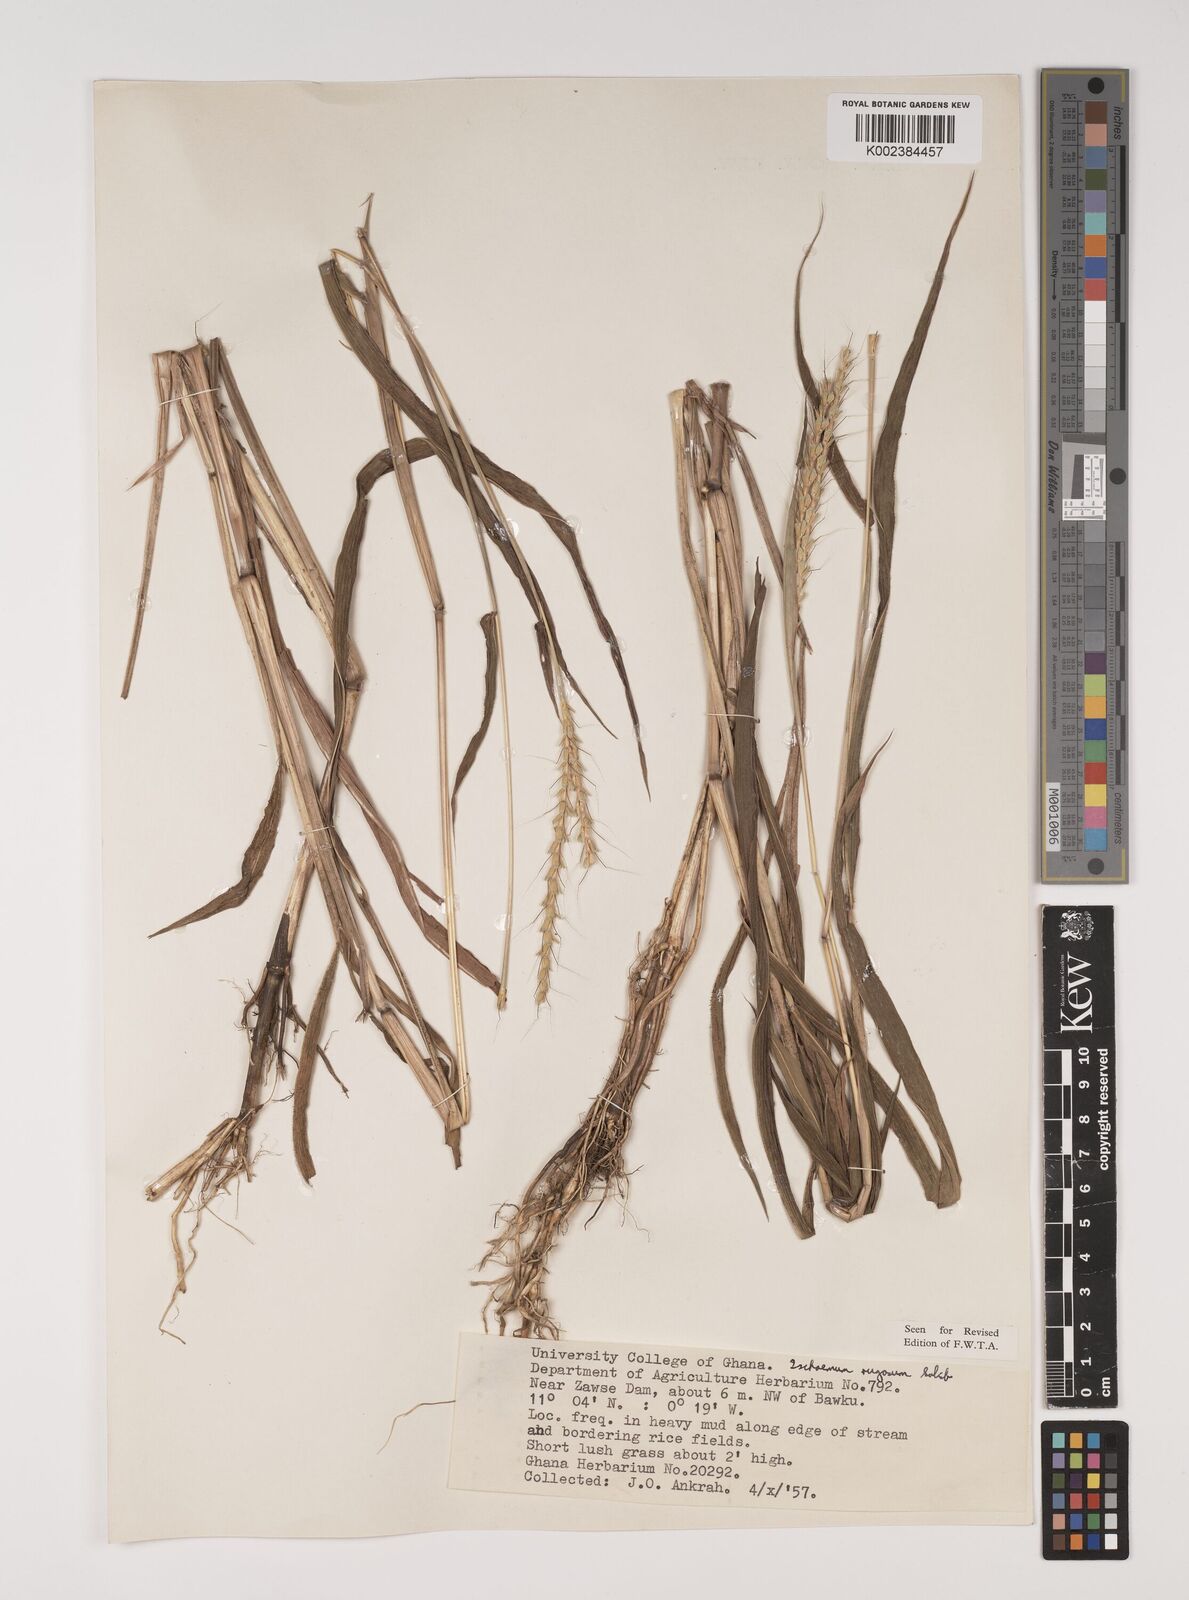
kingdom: Plantae
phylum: Tracheophyta
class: Liliopsida
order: Poales
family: Poaceae
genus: Ischaemum
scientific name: Ischaemum rugosum
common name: Saramatta grass
